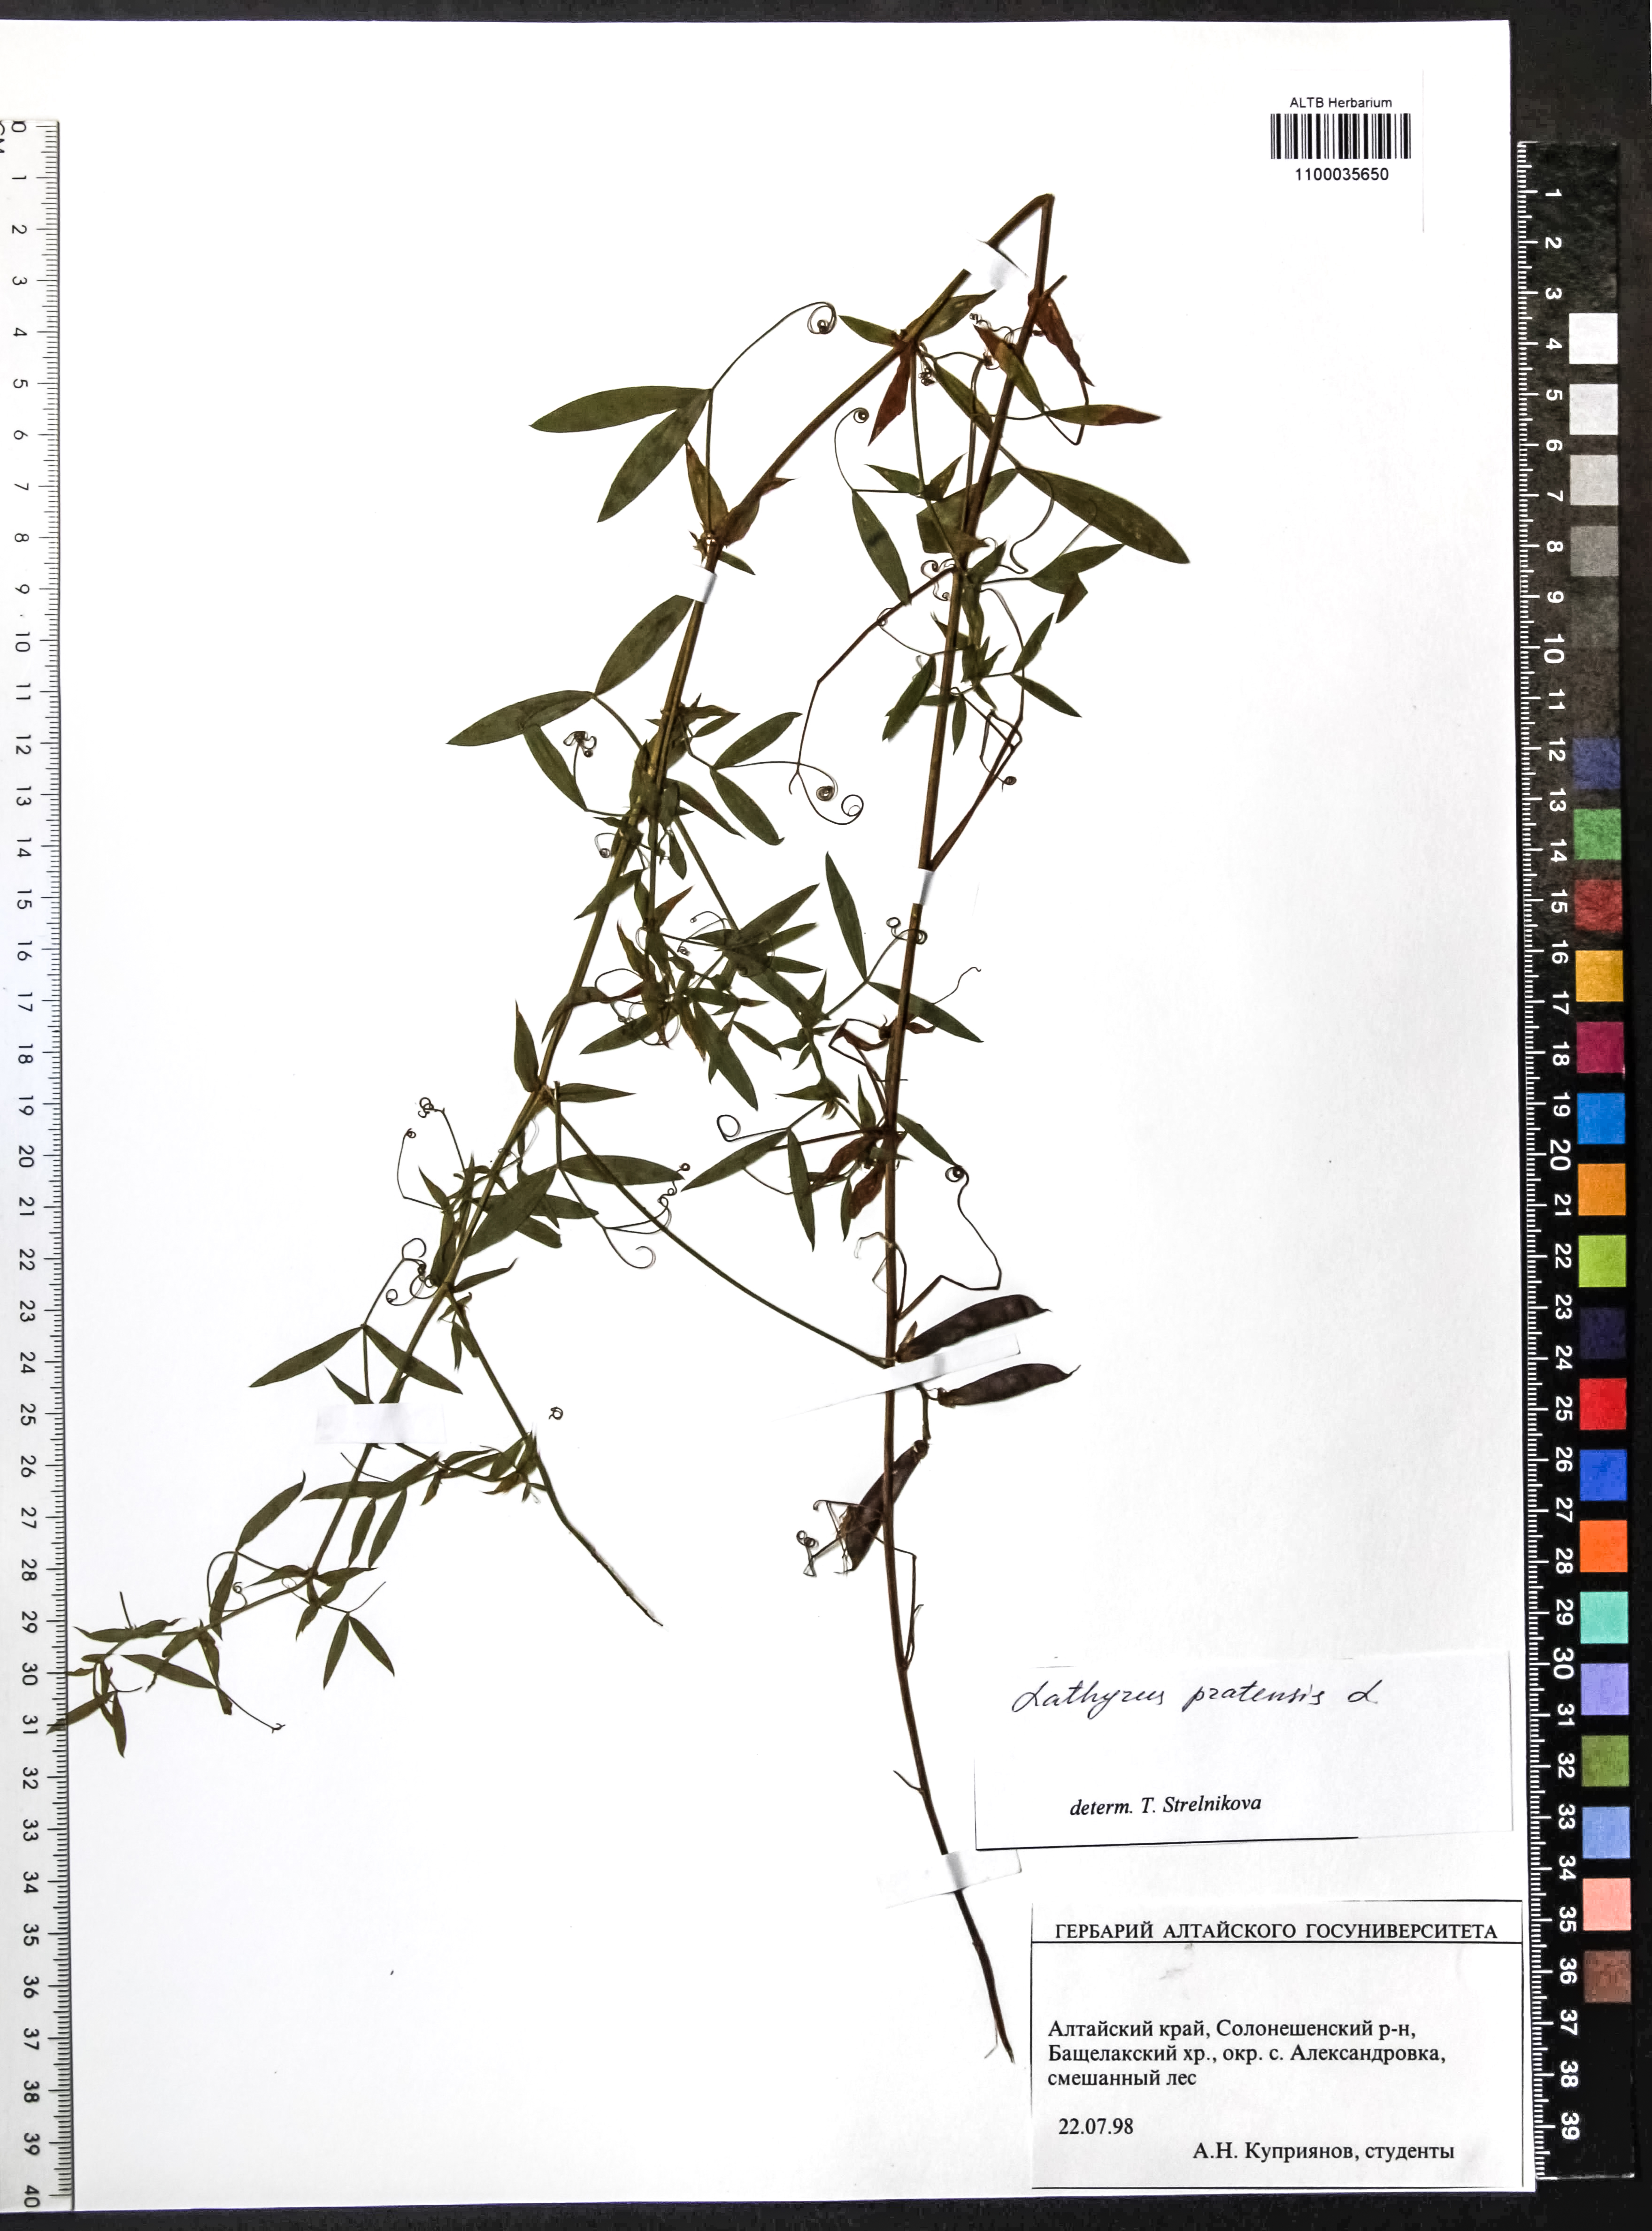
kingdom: Plantae
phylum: Tracheophyta
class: Magnoliopsida
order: Fabales
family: Fabaceae
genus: Lathyrus
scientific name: Lathyrus pratensis
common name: Meadow vetchling
